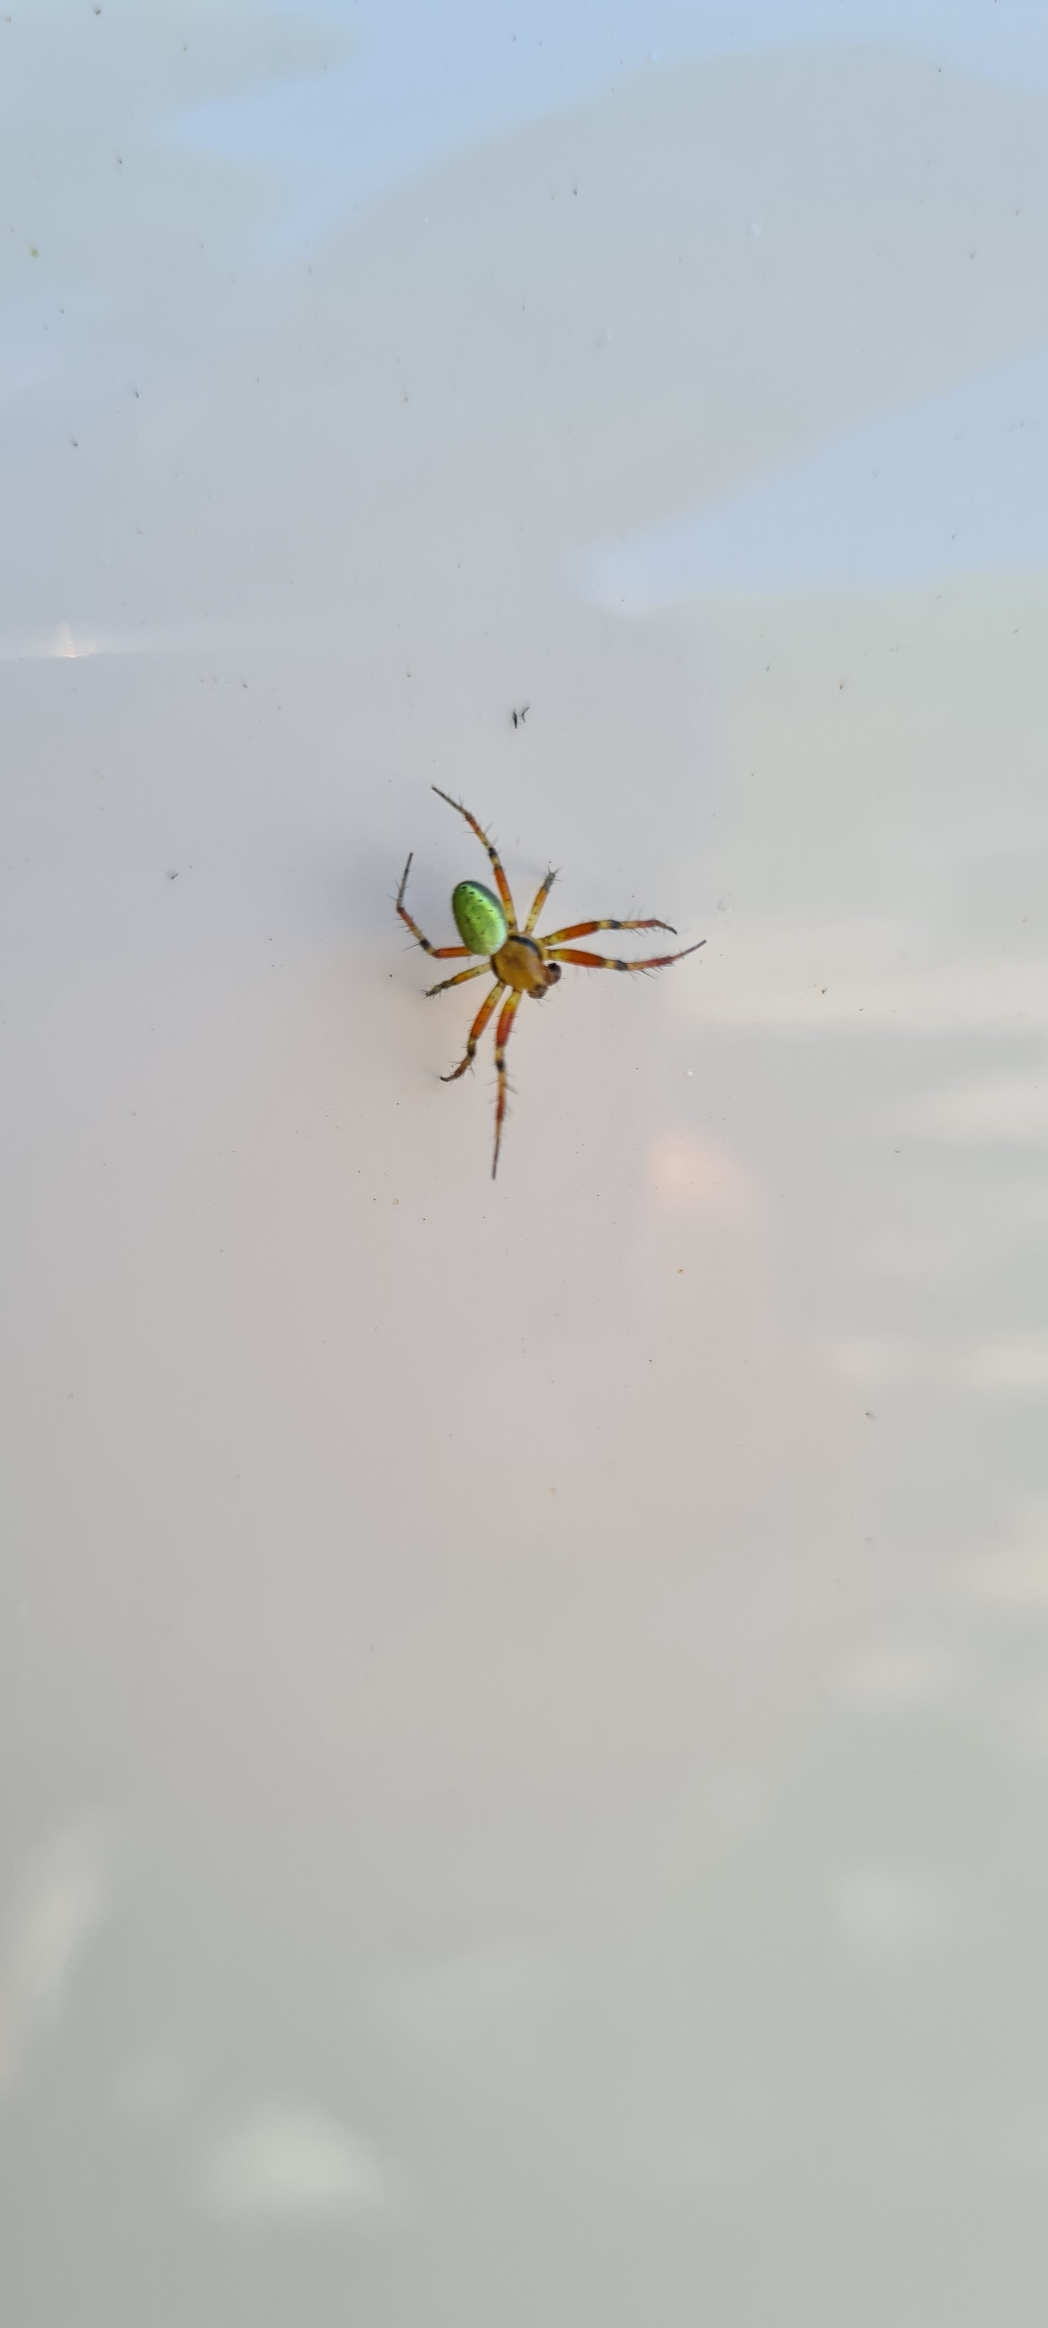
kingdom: Animalia
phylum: Arthropoda
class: Arachnida
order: Araneae
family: Araneidae
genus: Araniella
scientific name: Araniella
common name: Agurkeedderkopslægten
